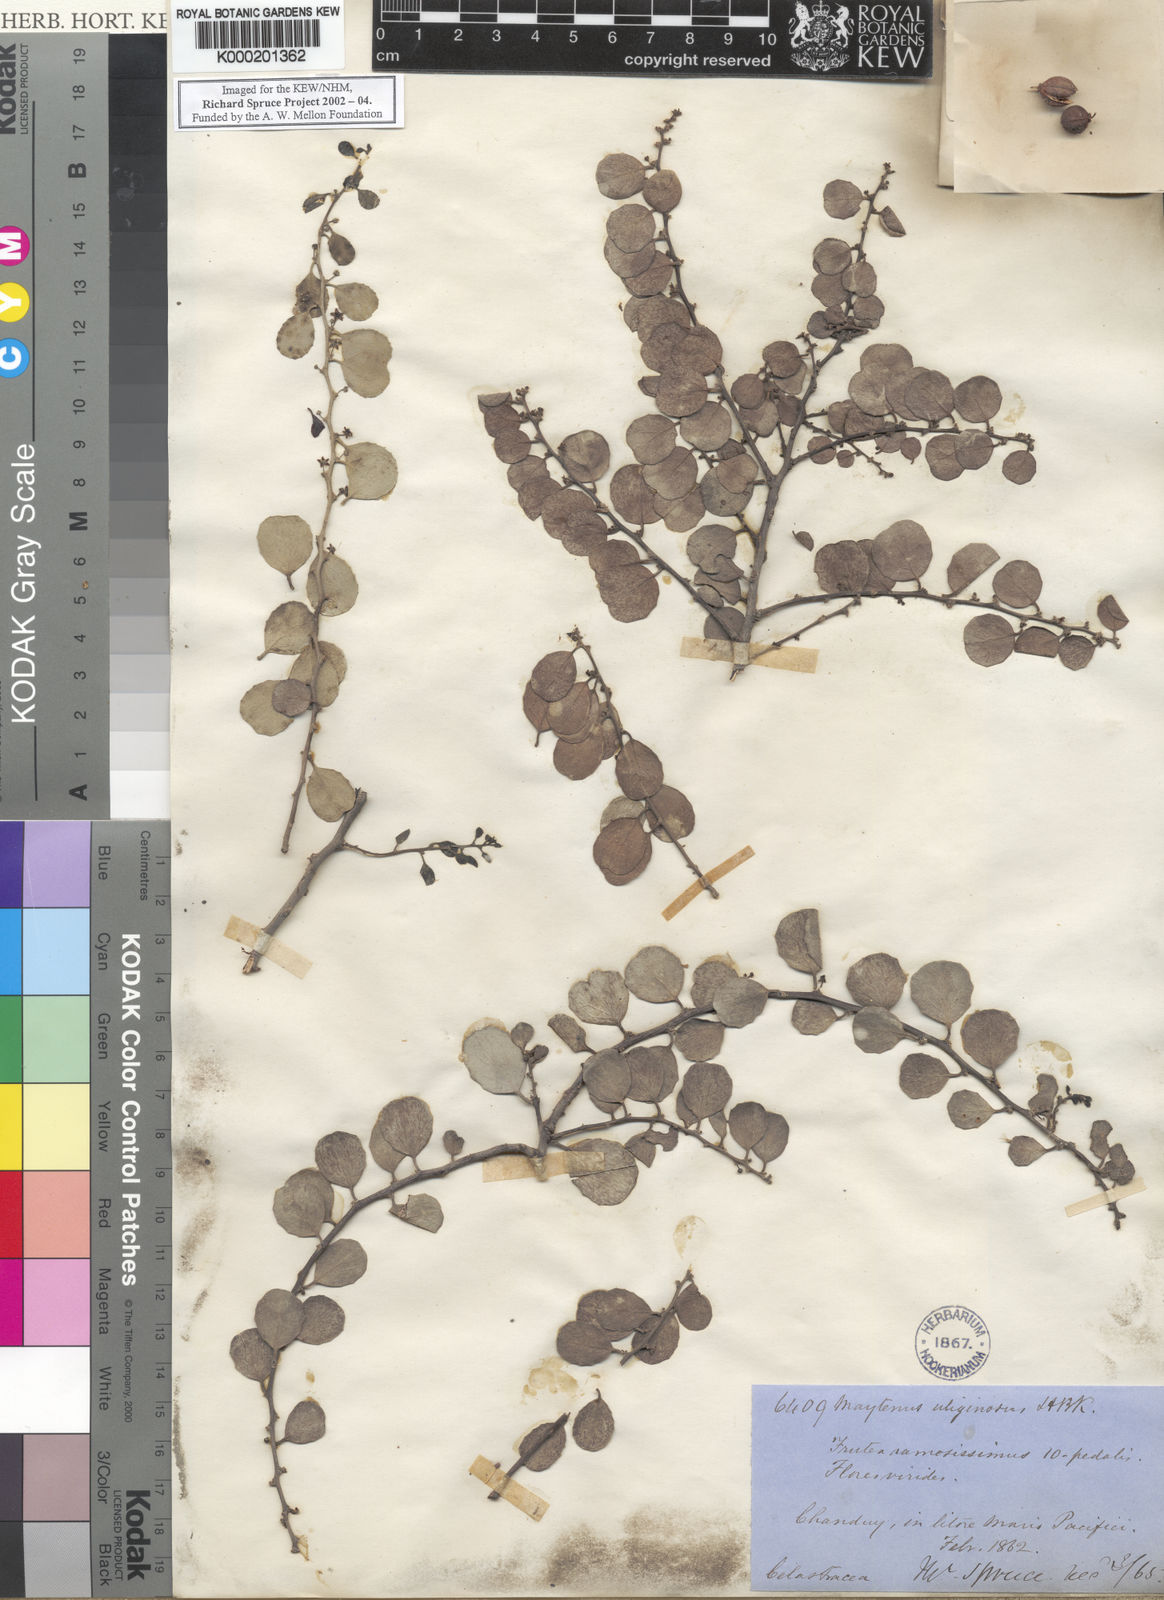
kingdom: Plantae
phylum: Tracheophyta
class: Magnoliopsida
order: Celastrales
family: Celastraceae
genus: Tricerma
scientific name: Tricerma octogonum
